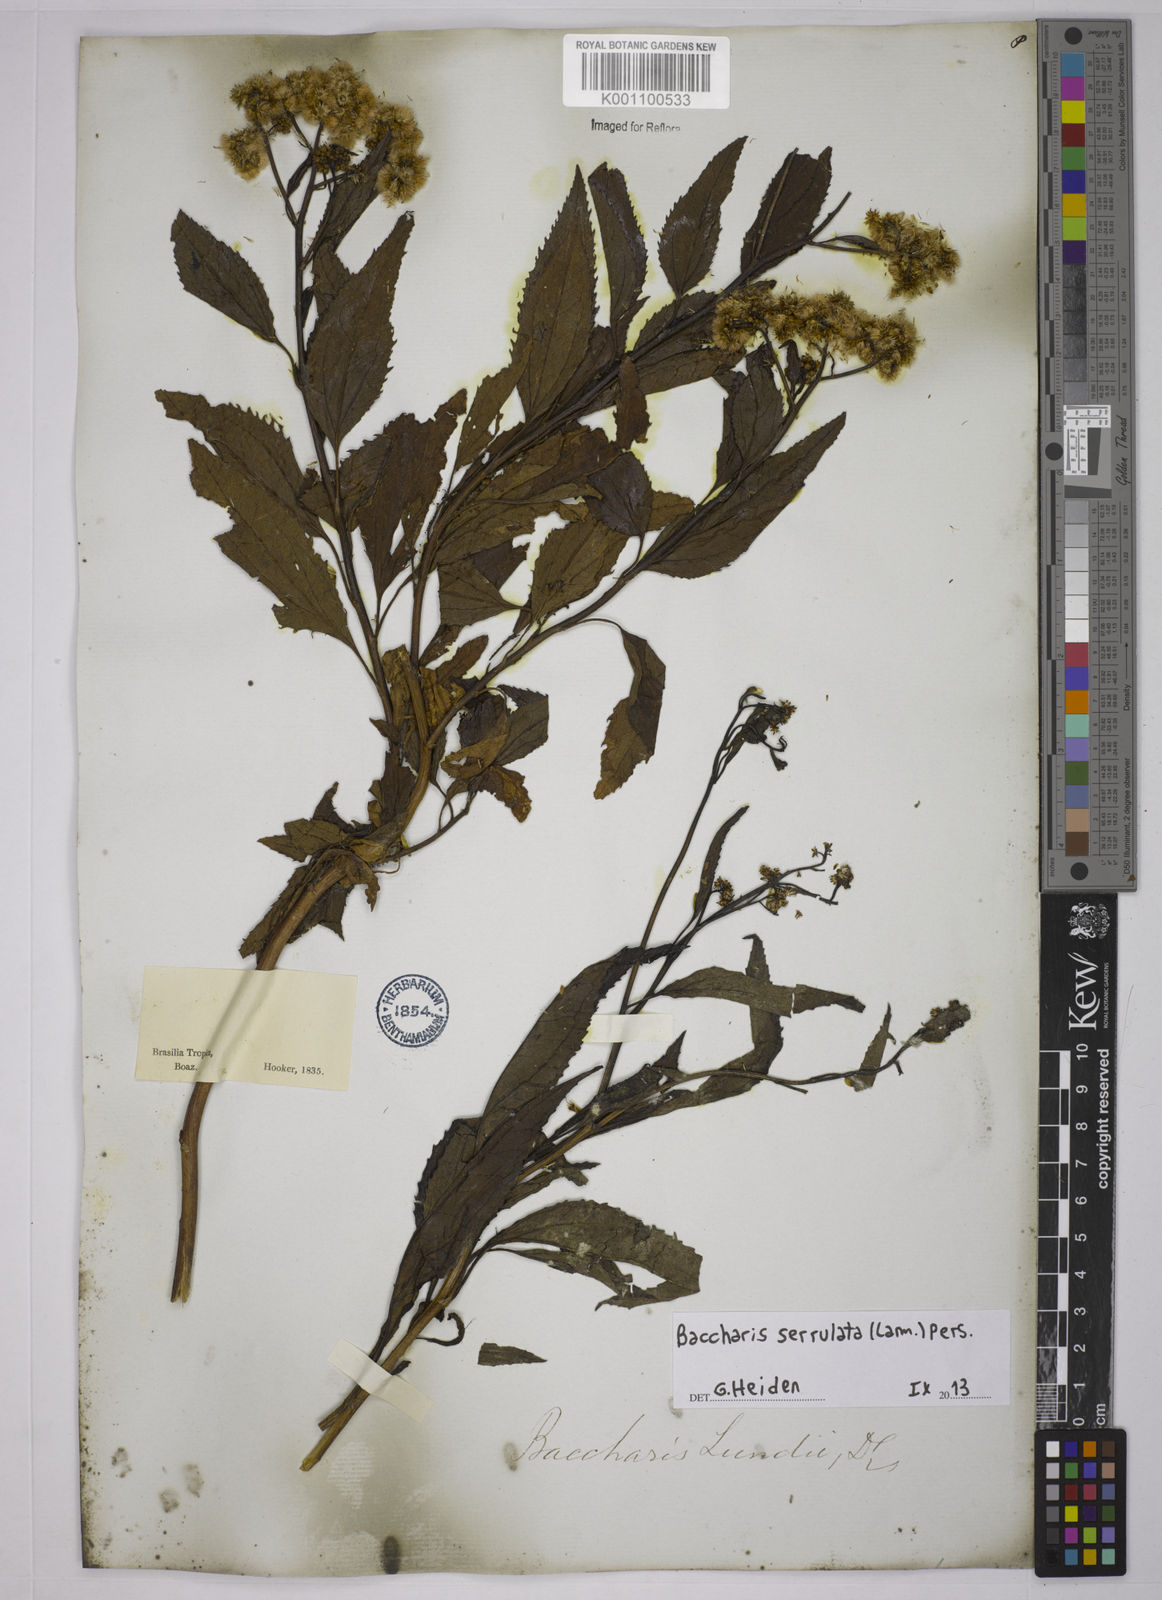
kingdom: Plantae
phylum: Tracheophyta
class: Magnoliopsida
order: Asterales
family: Asteraceae
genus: Baccharis
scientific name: Baccharis serrulata
